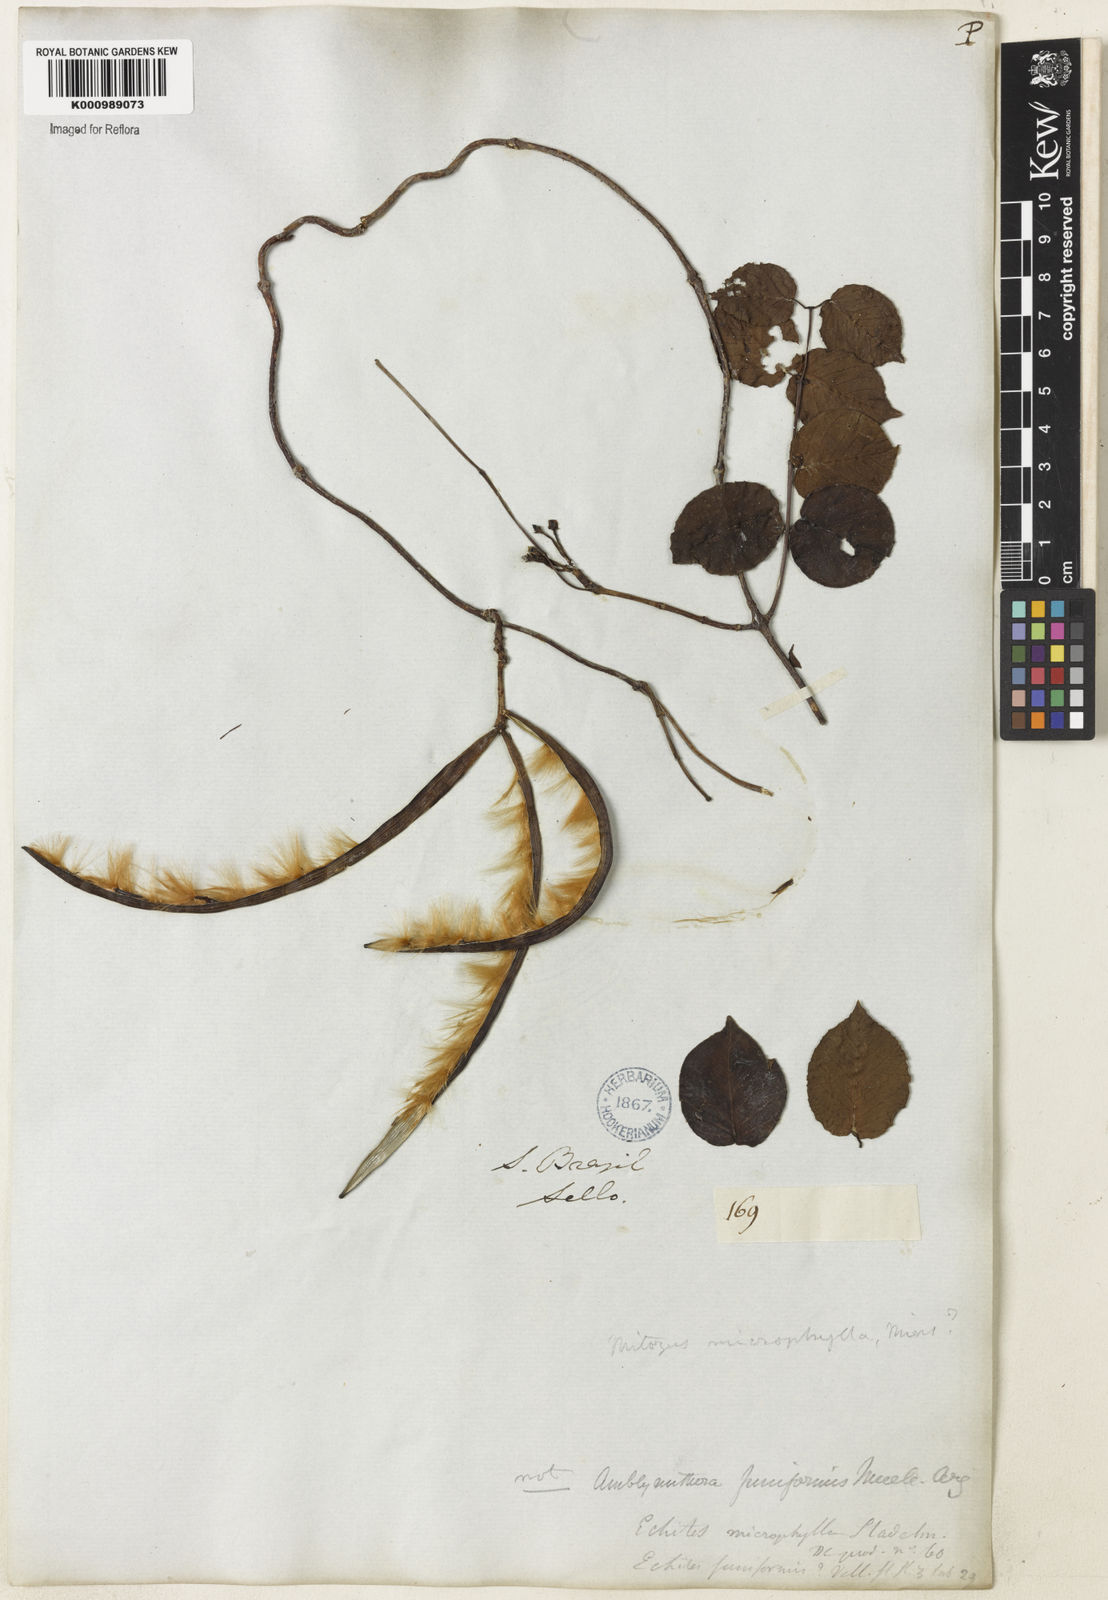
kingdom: Plantae
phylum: Tracheophyta
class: Magnoliopsida
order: Gentianales
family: Apocynaceae
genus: Mandevilla
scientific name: Mandevilla funiformis
